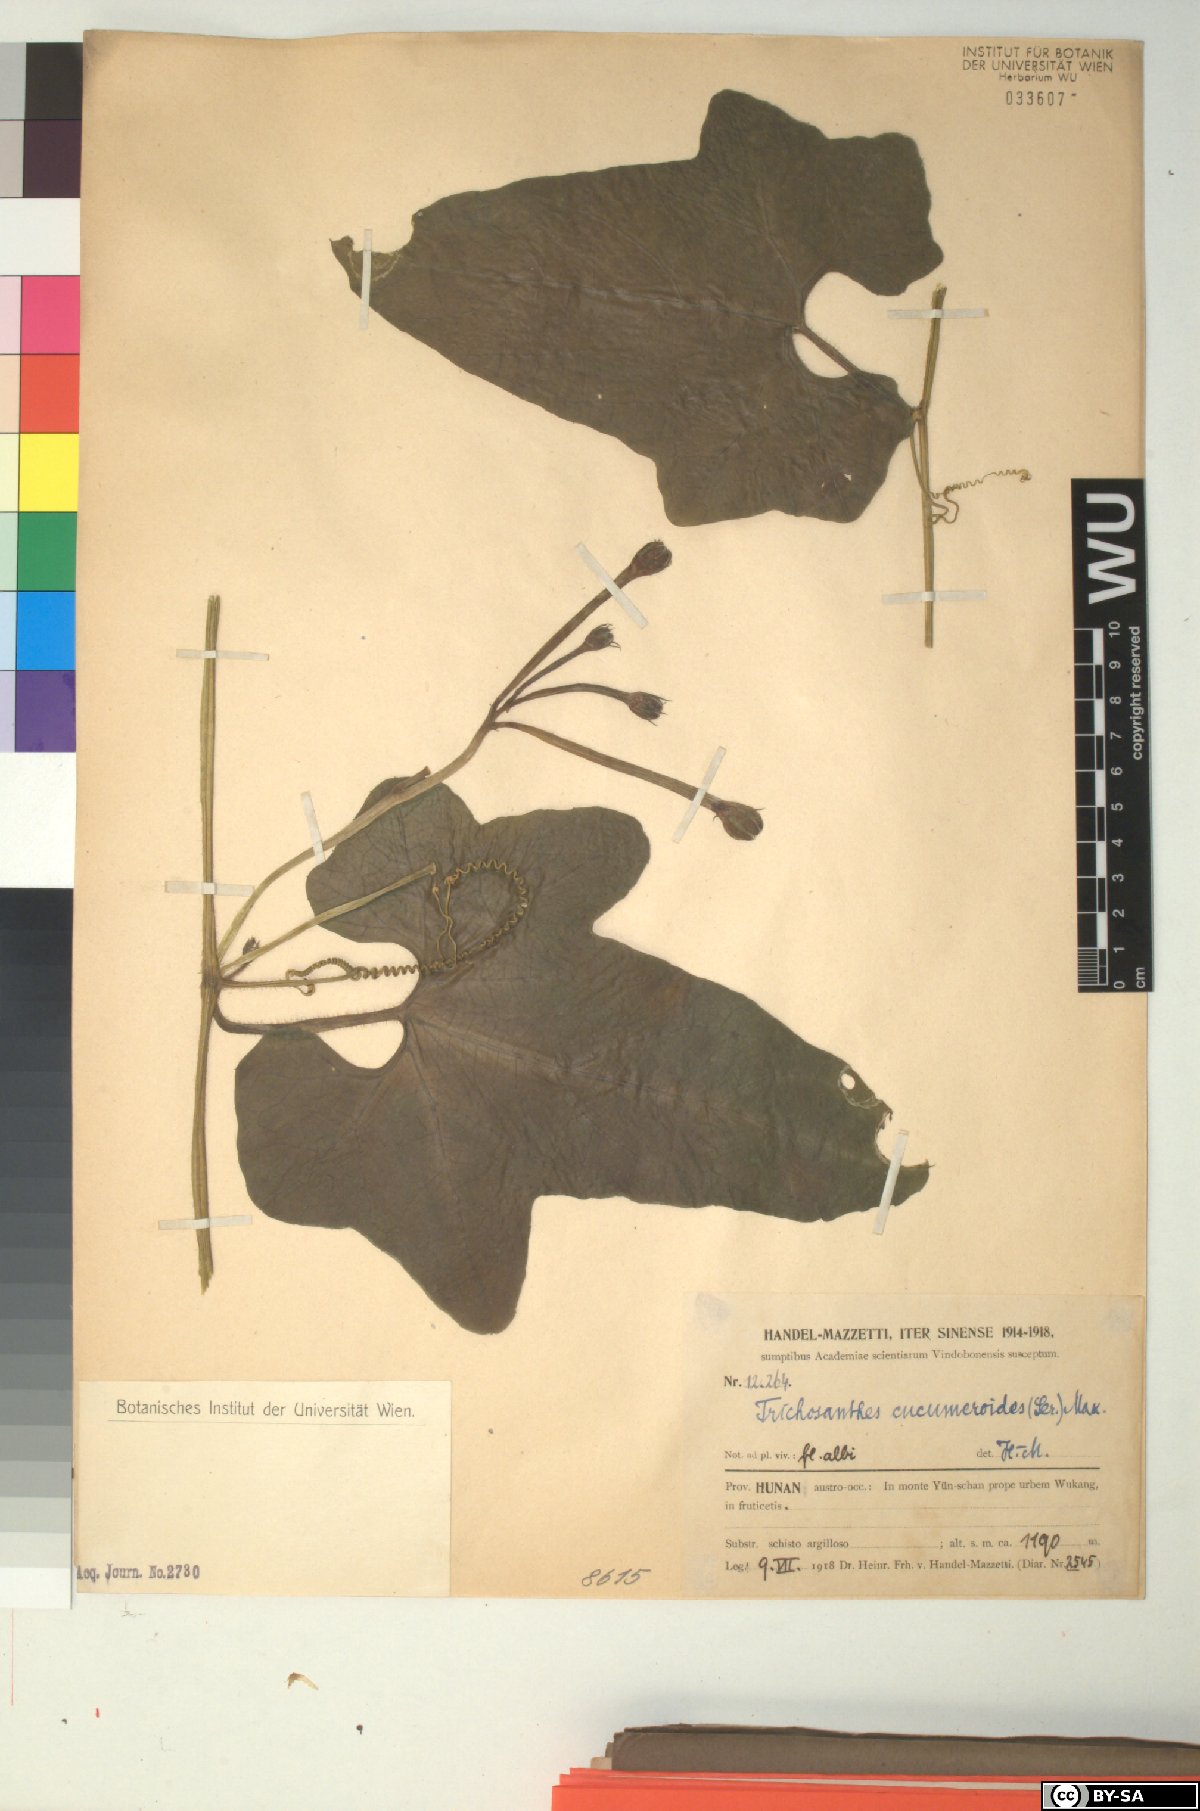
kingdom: Plantae
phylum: Tracheophyta
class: Magnoliopsida
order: Cucurbitales
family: Cucurbitaceae
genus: Trichosanthes
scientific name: Trichosanthes cucumeroides
